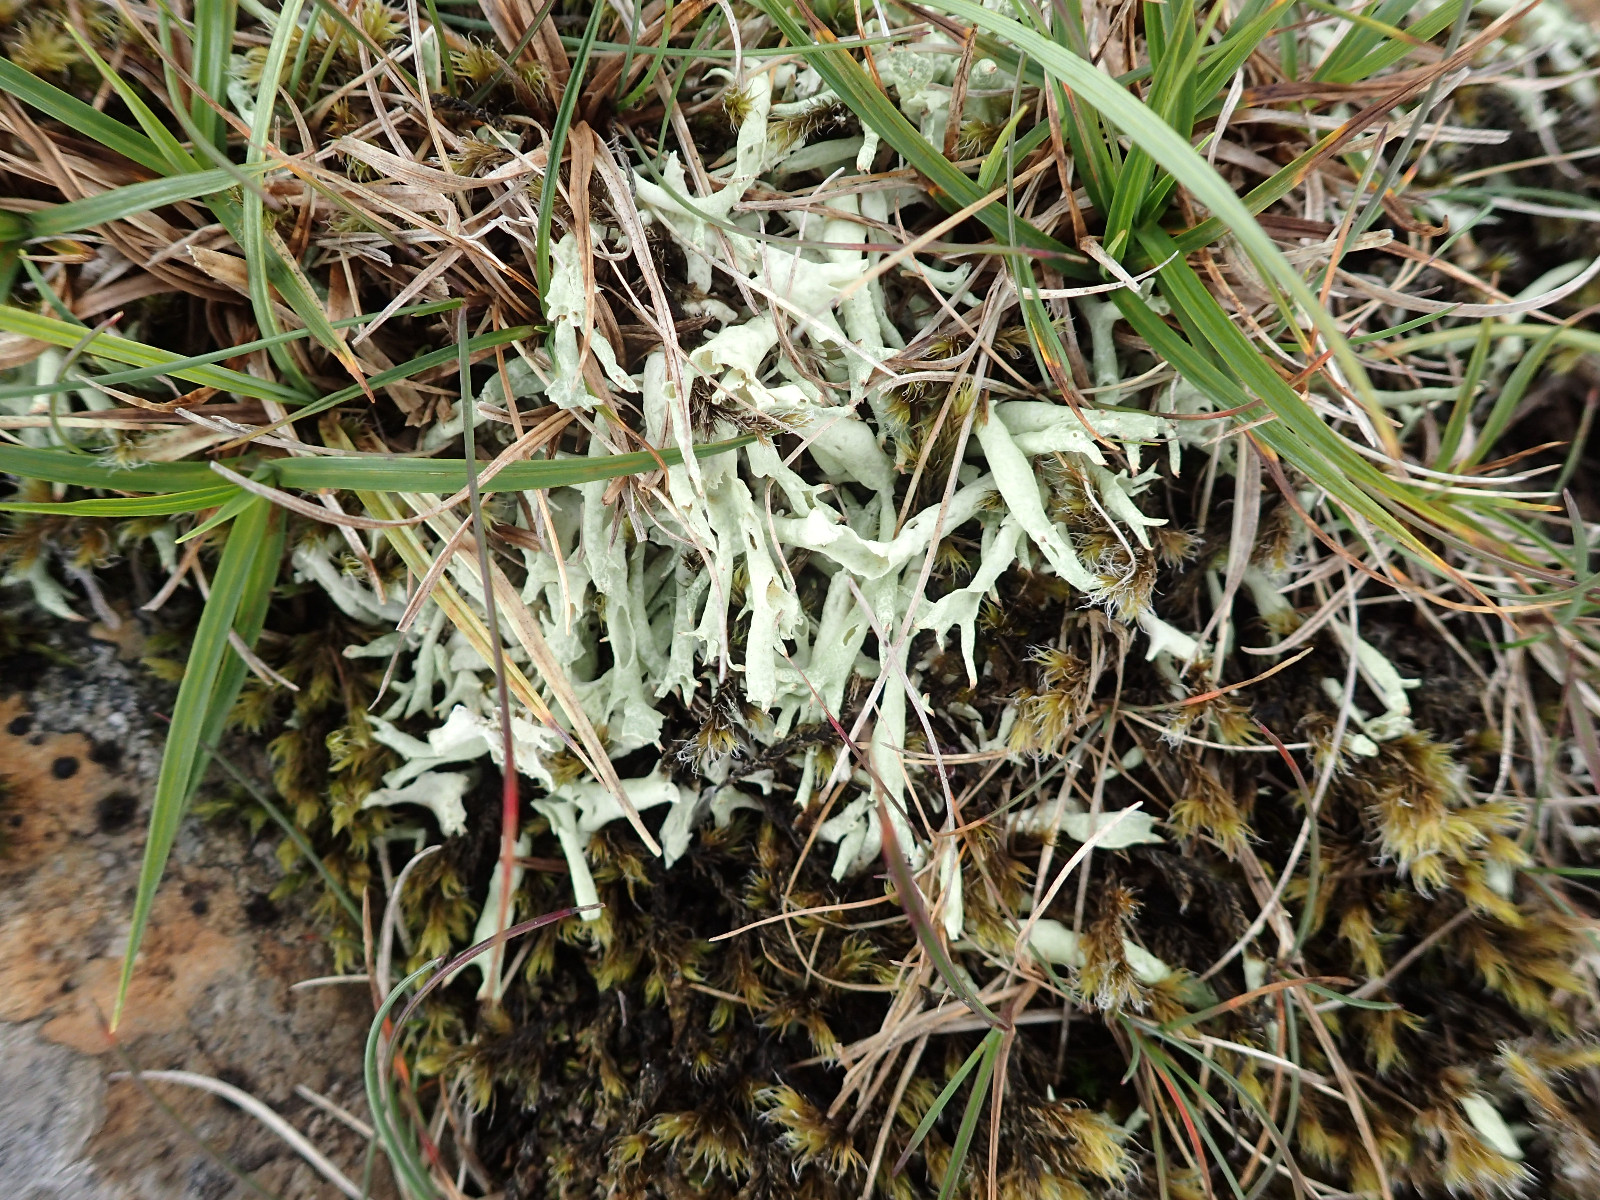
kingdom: Fungi
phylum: Ascomycota
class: Lecanoromycetes
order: Lecanorales
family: Cladoniaceae
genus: Cladonia
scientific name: Cladonia uncialis
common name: pigget bægerlav
